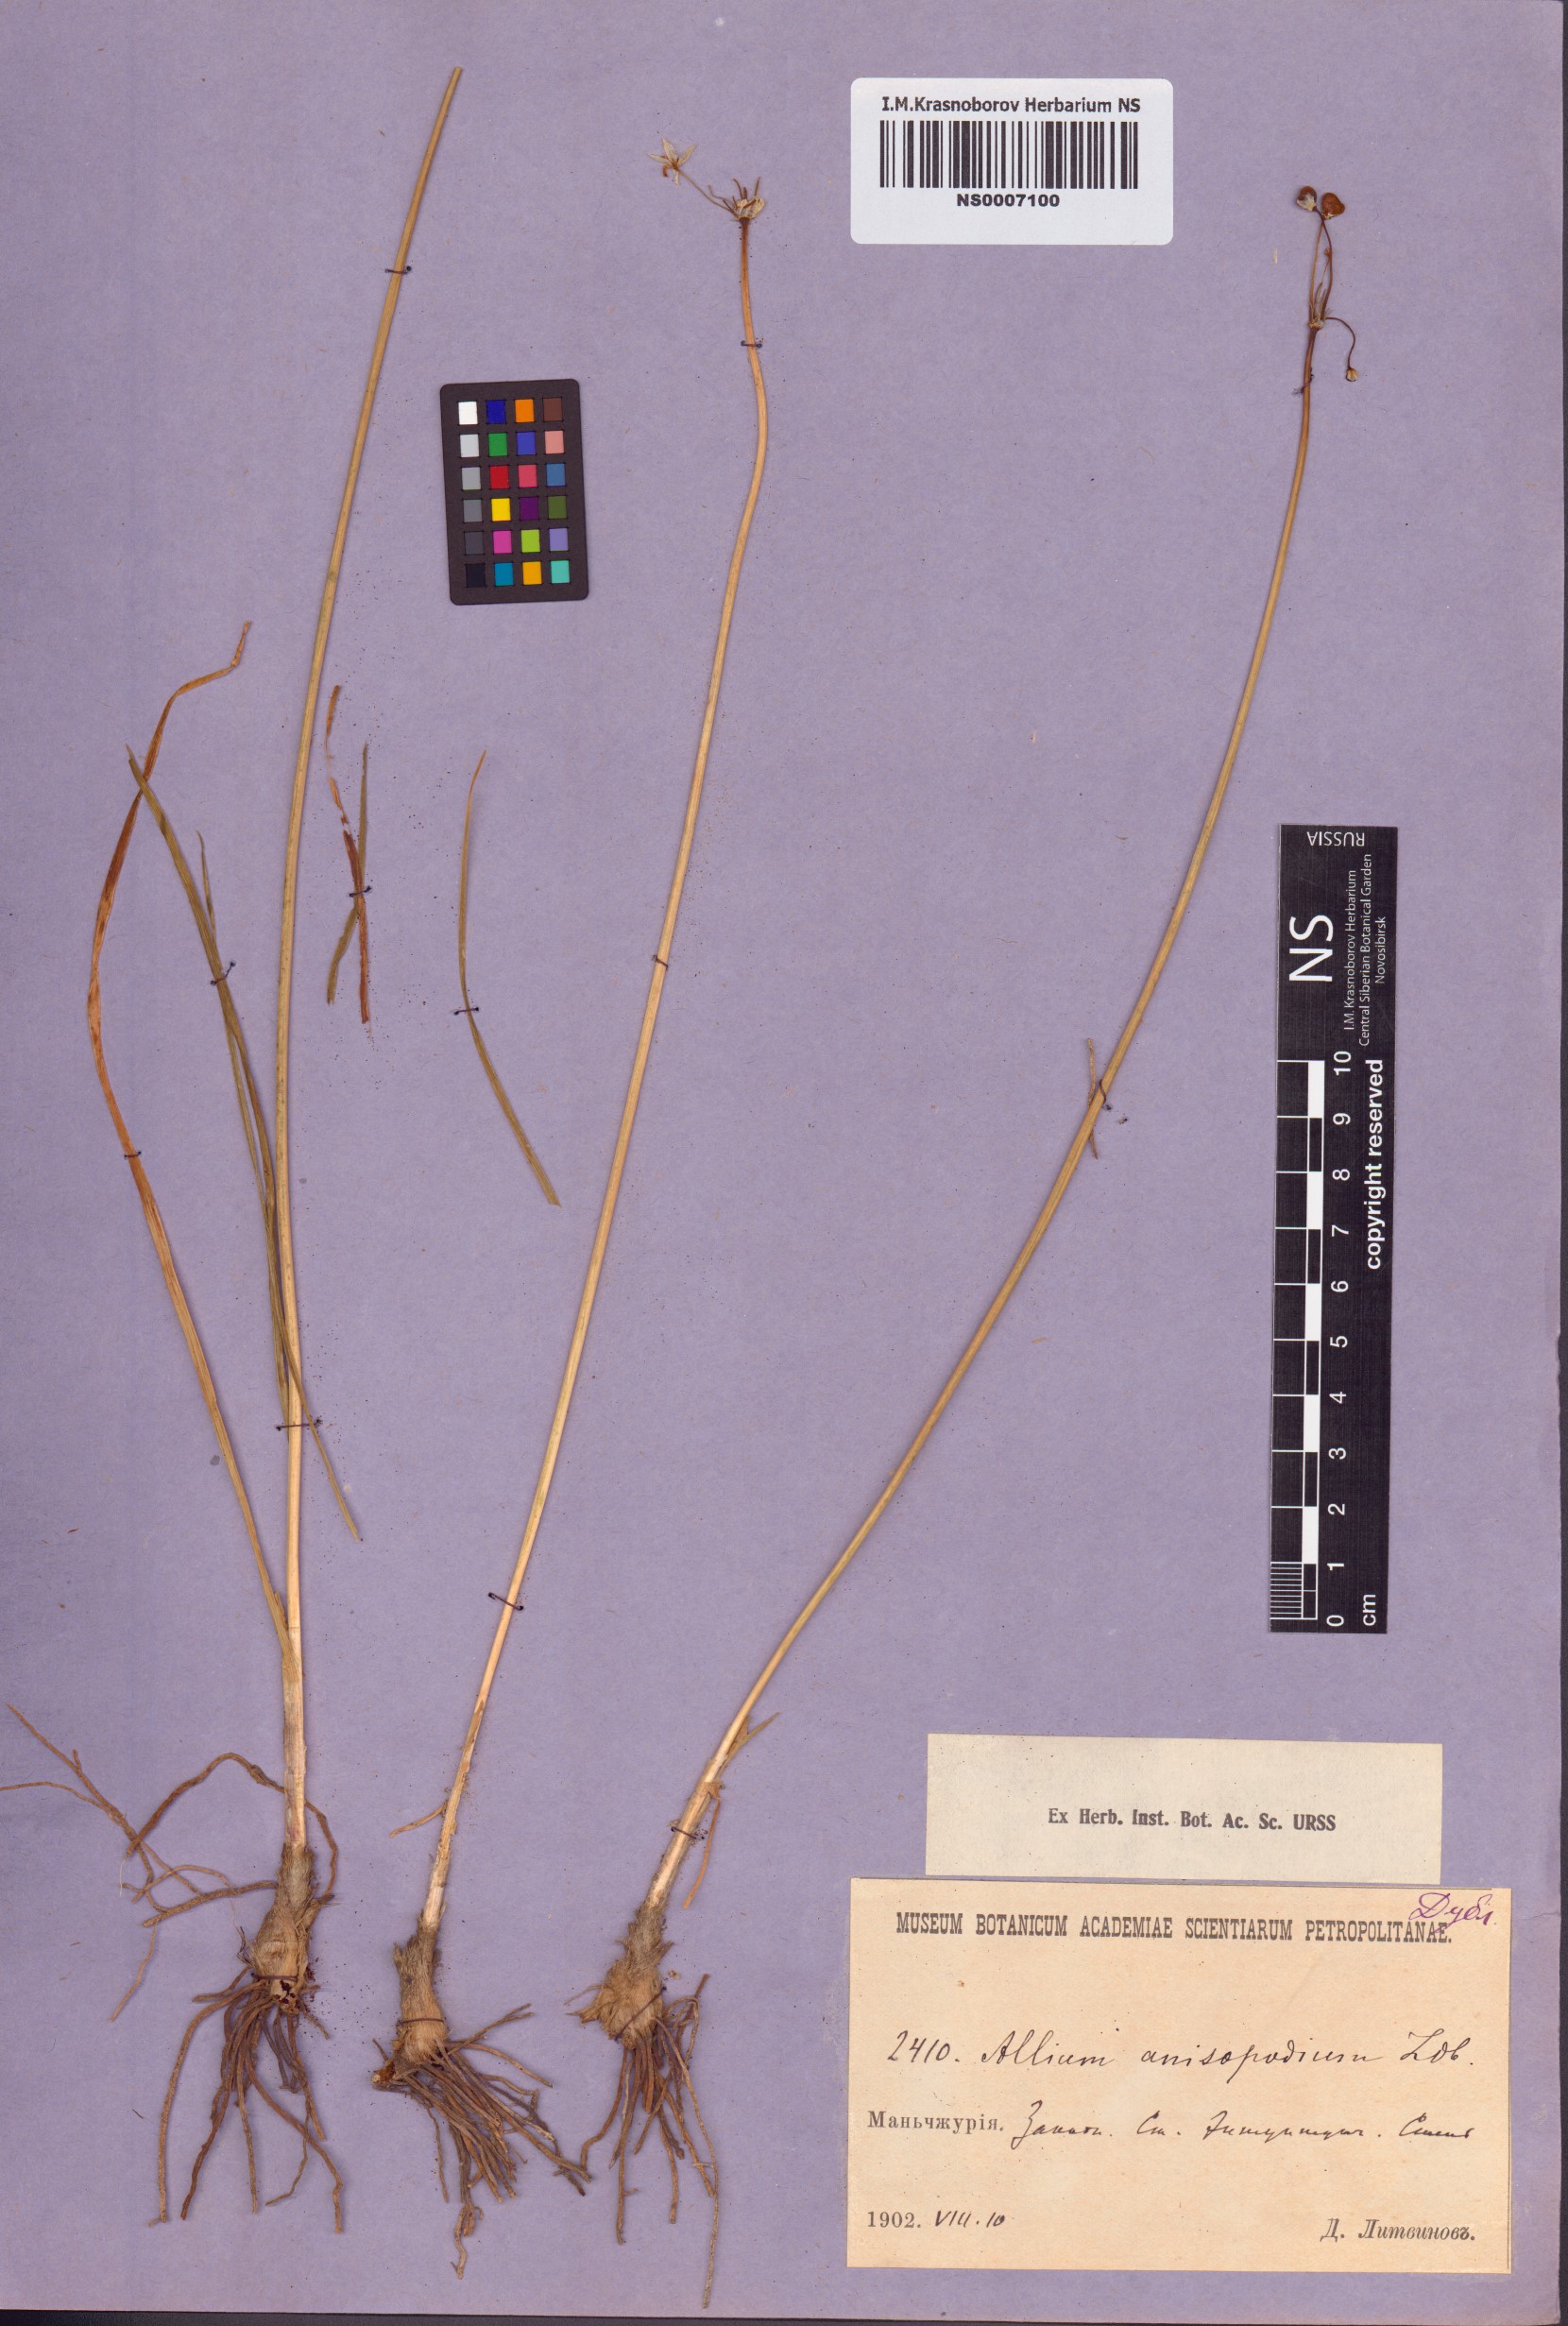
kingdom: Plantae
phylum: Tracheophyta
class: Liliopsida
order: Asparagales
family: Amaryllidaceae
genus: Allium
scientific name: Allium anisopodium
